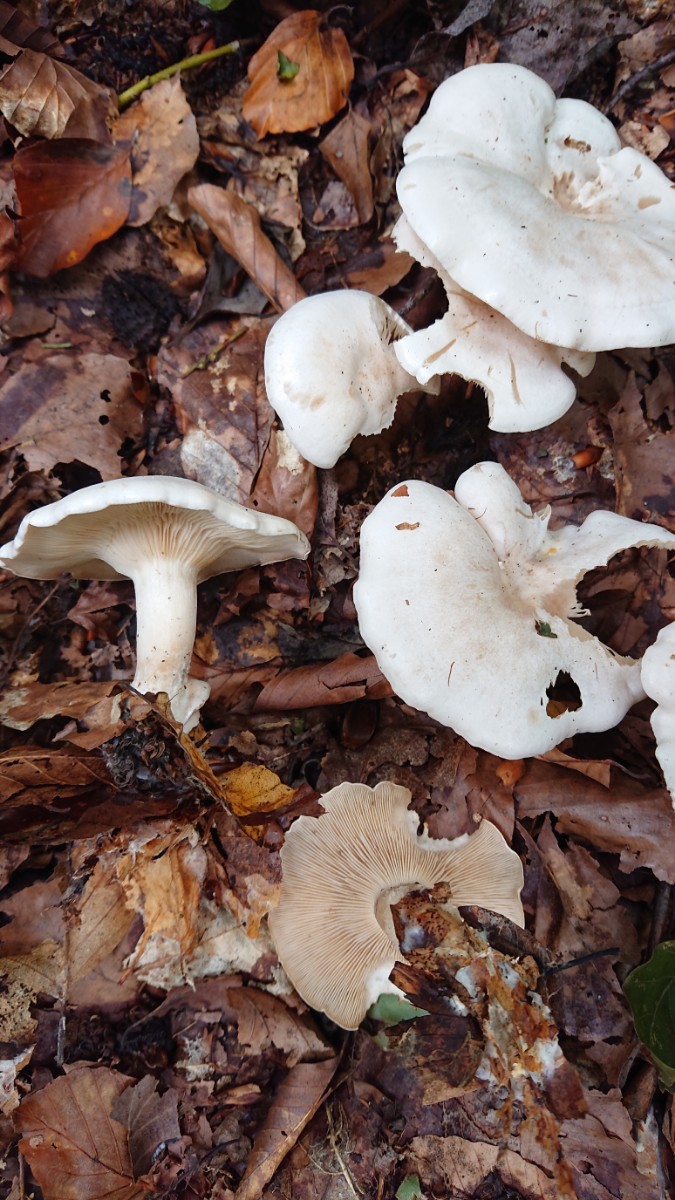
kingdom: Fungi
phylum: Basidiomycota
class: Agaricomycetes
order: Agaricales
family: Tricholomataceae
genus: Clitocybe
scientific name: Clitocybe phyllophila
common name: løv-tragthat
